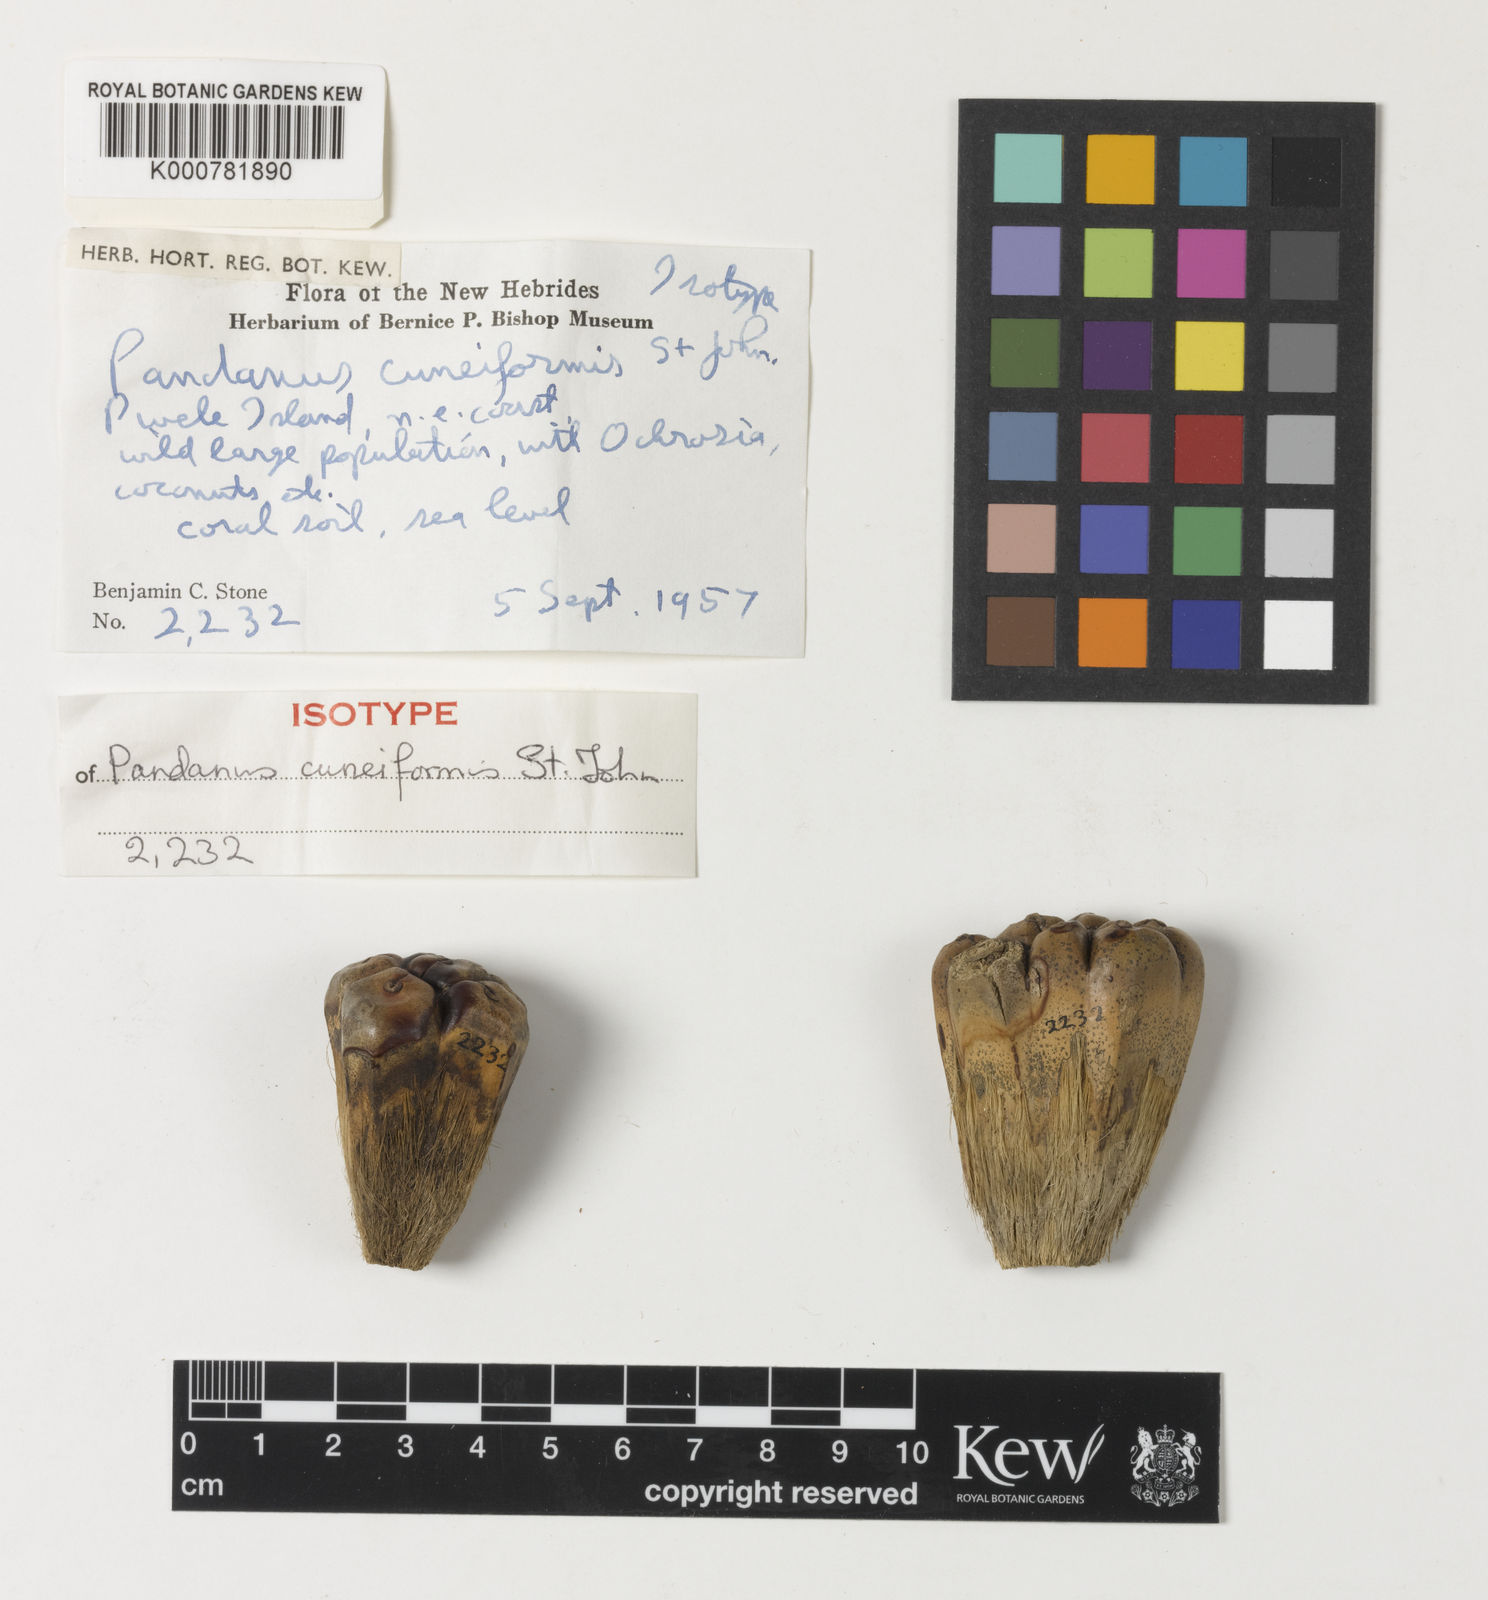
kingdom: Plantae
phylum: Tracheophyta
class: Liliopsida
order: Pandanales
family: Pandanaceae
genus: Pandanus
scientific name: Pandanus cuneiformis
